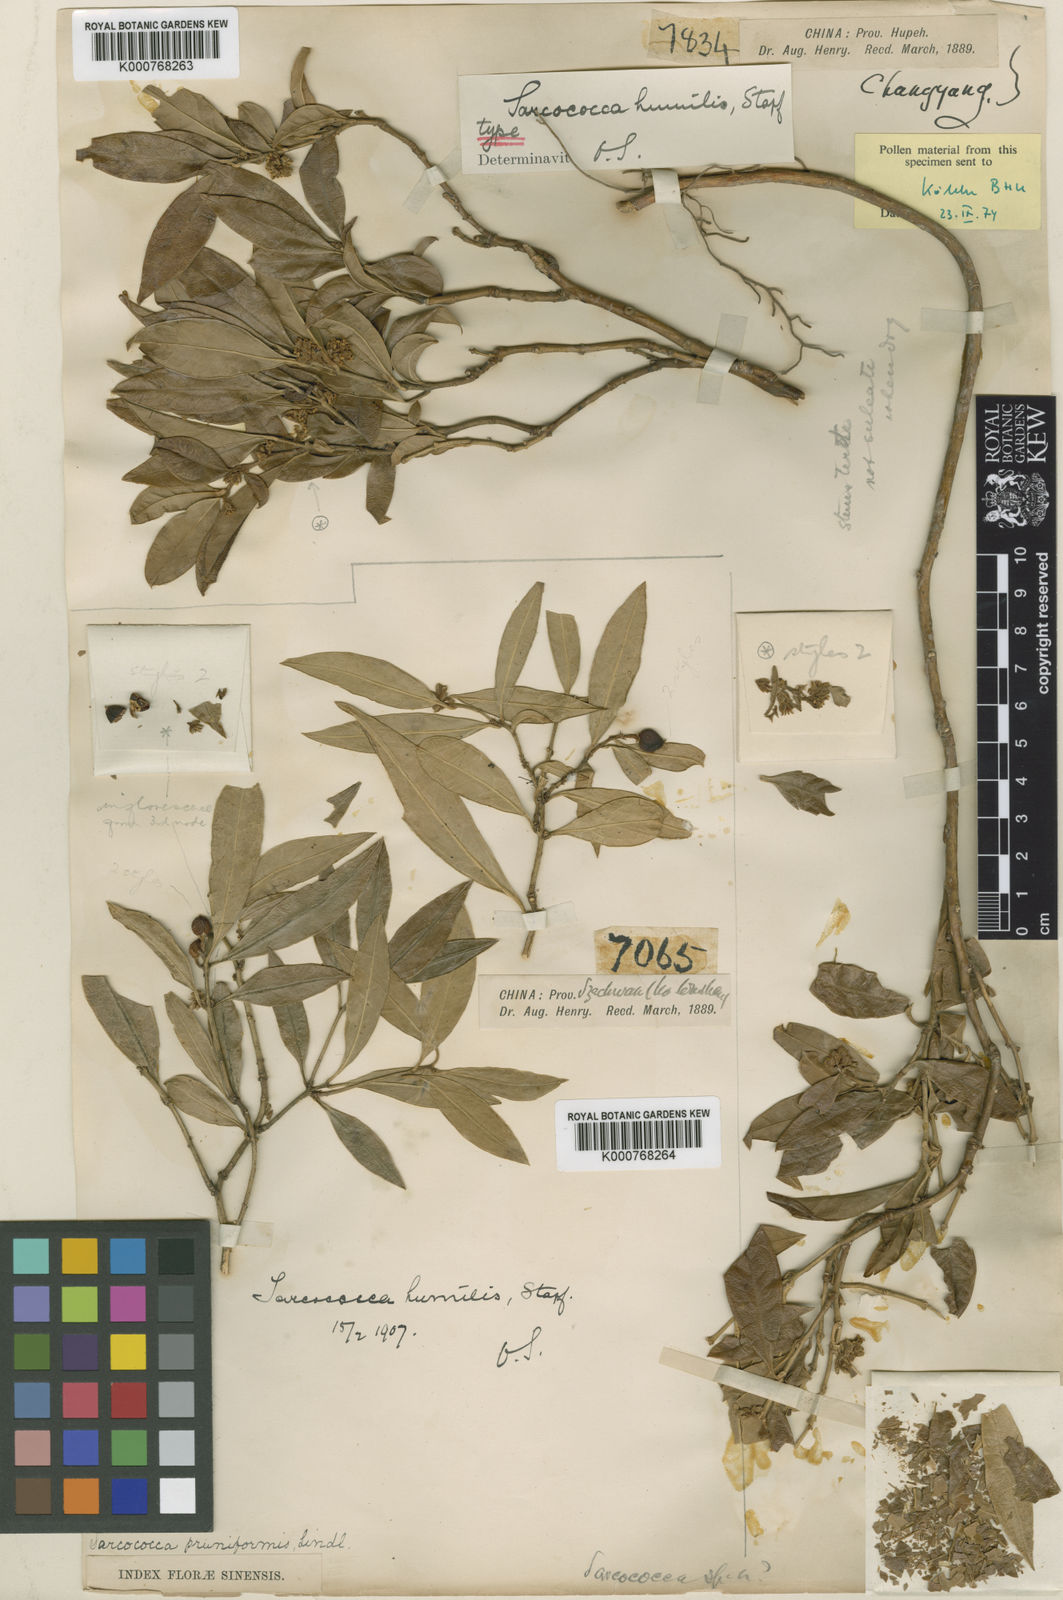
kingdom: Plantae
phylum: Tracheophyta
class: Magnoliopsida
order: Buxales
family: Buxaceae
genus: Sarcococca
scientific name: Sarcococca hookeriana
